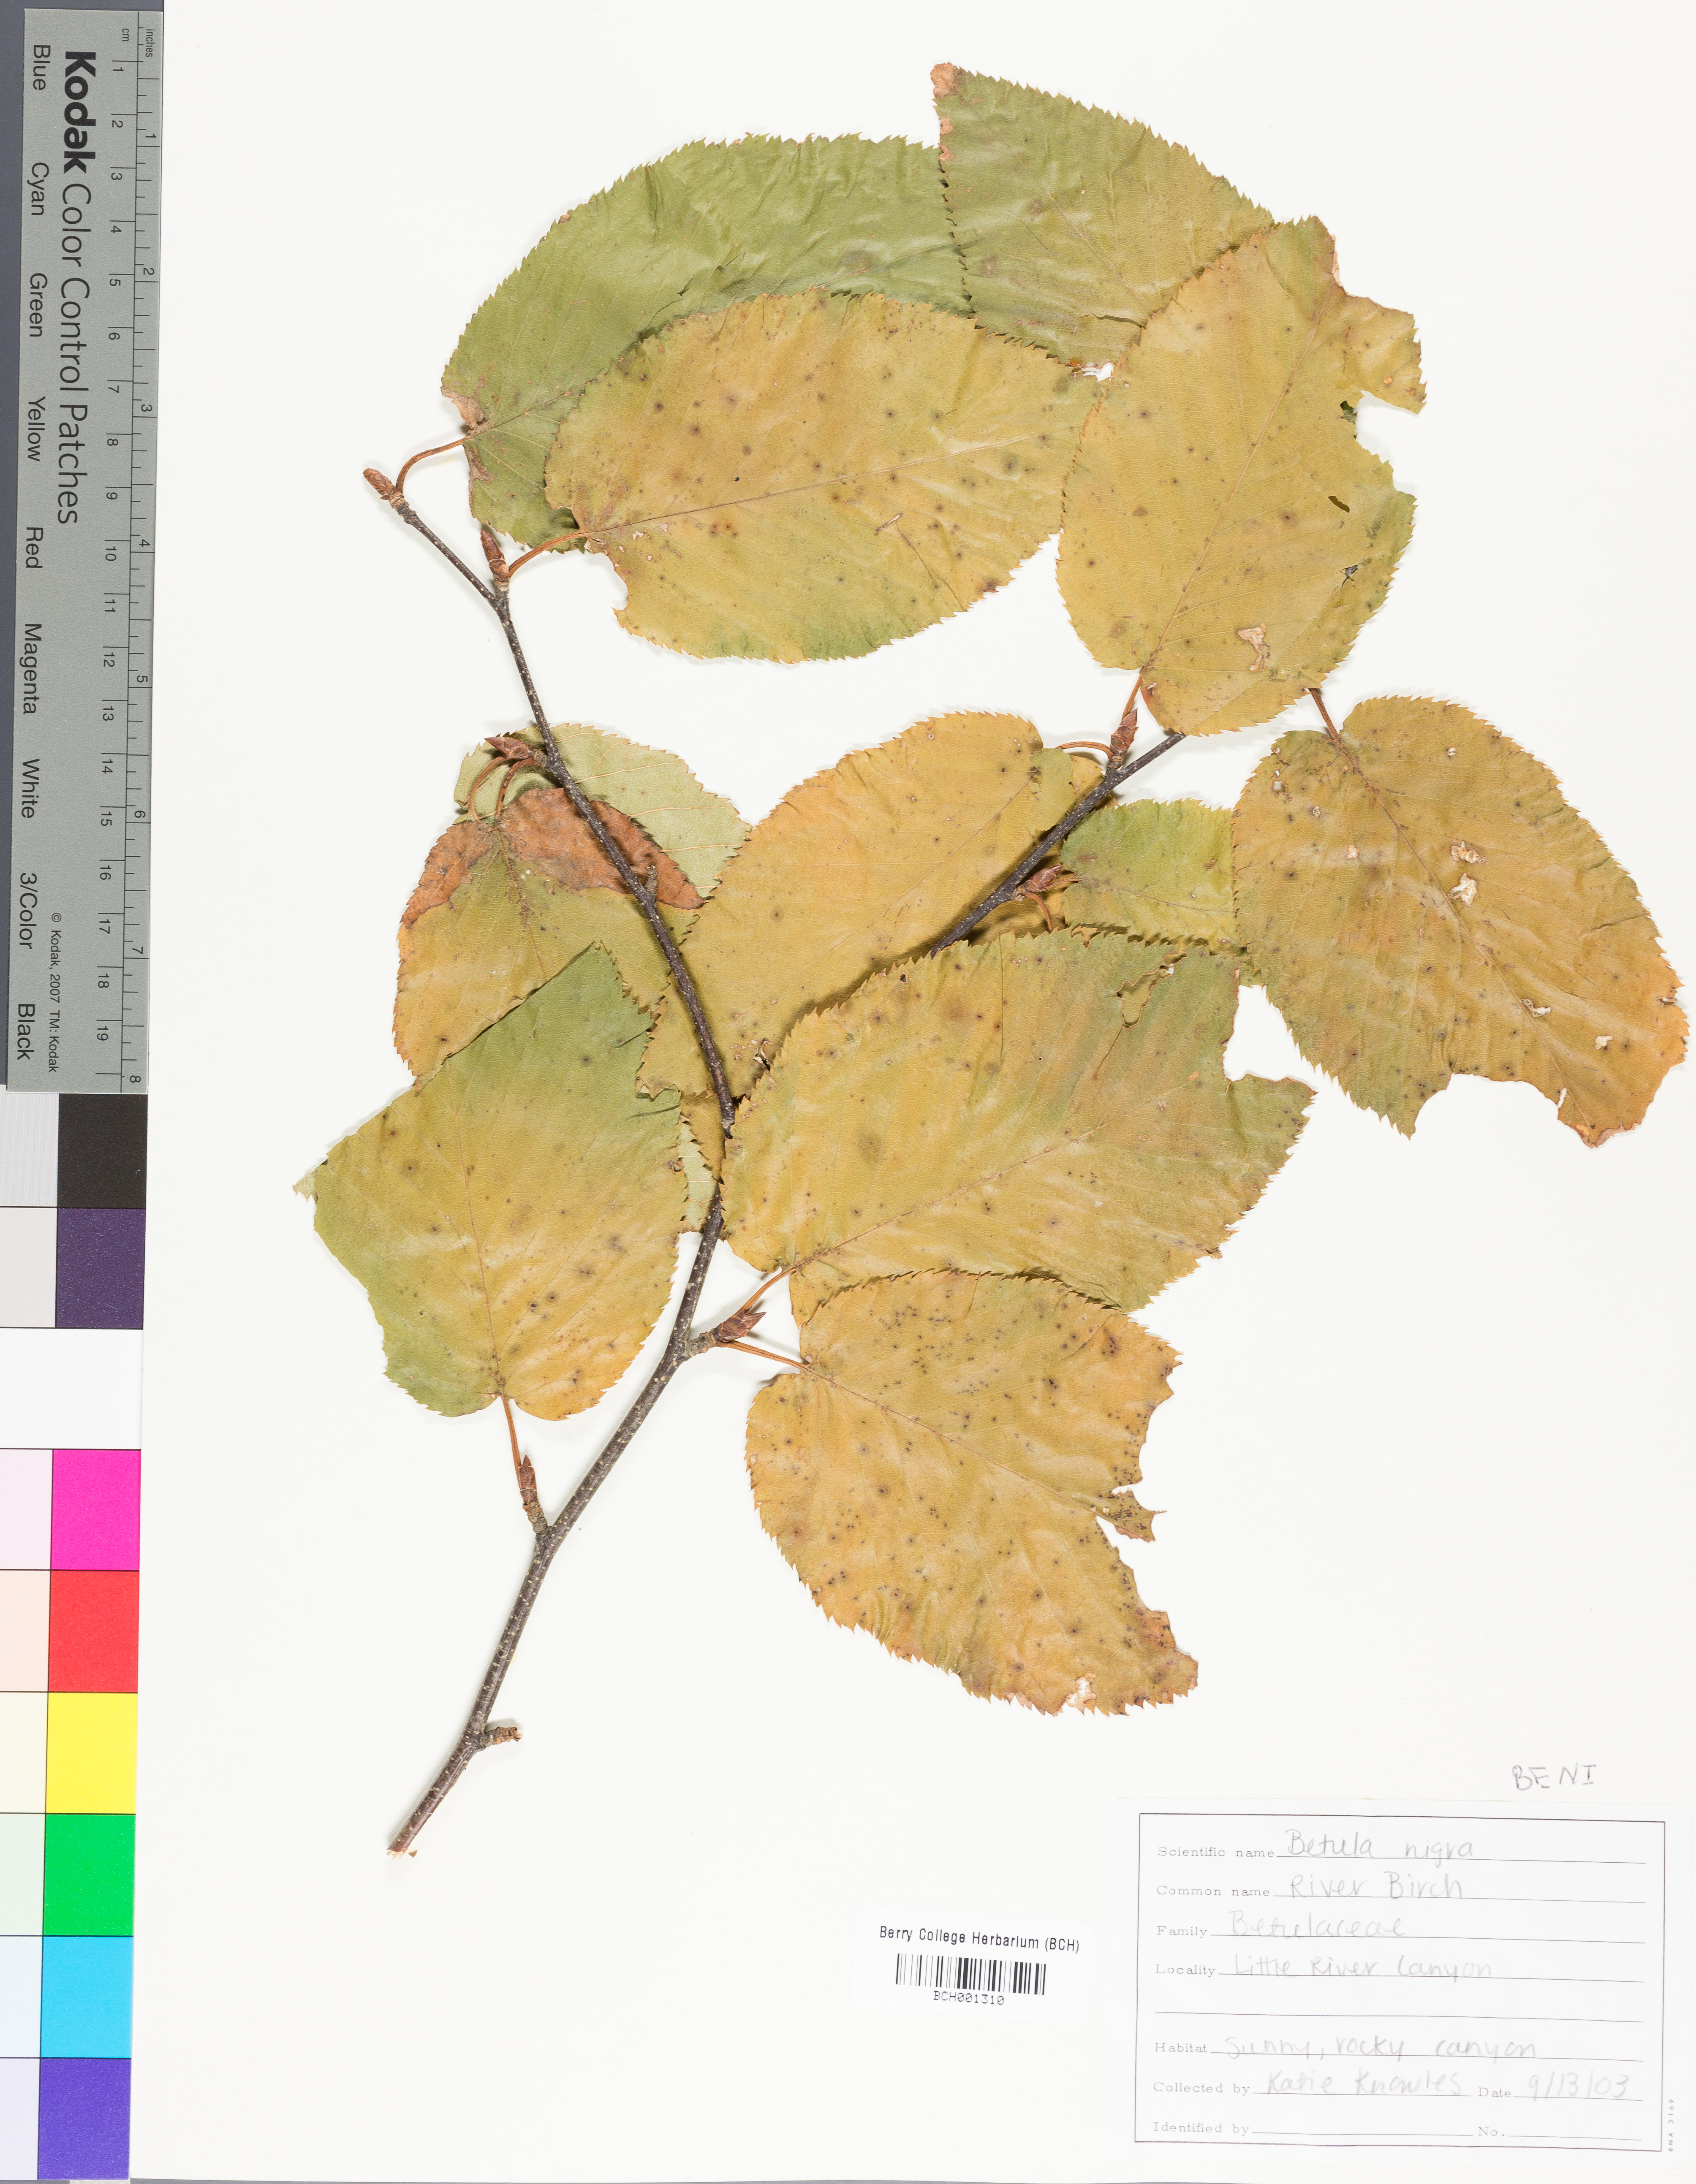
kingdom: Plantae
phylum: Tracheophyta
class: Magnoliopsida
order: Fagales
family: Betulaceae
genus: Betula
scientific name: Betula nigra
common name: Black birch
